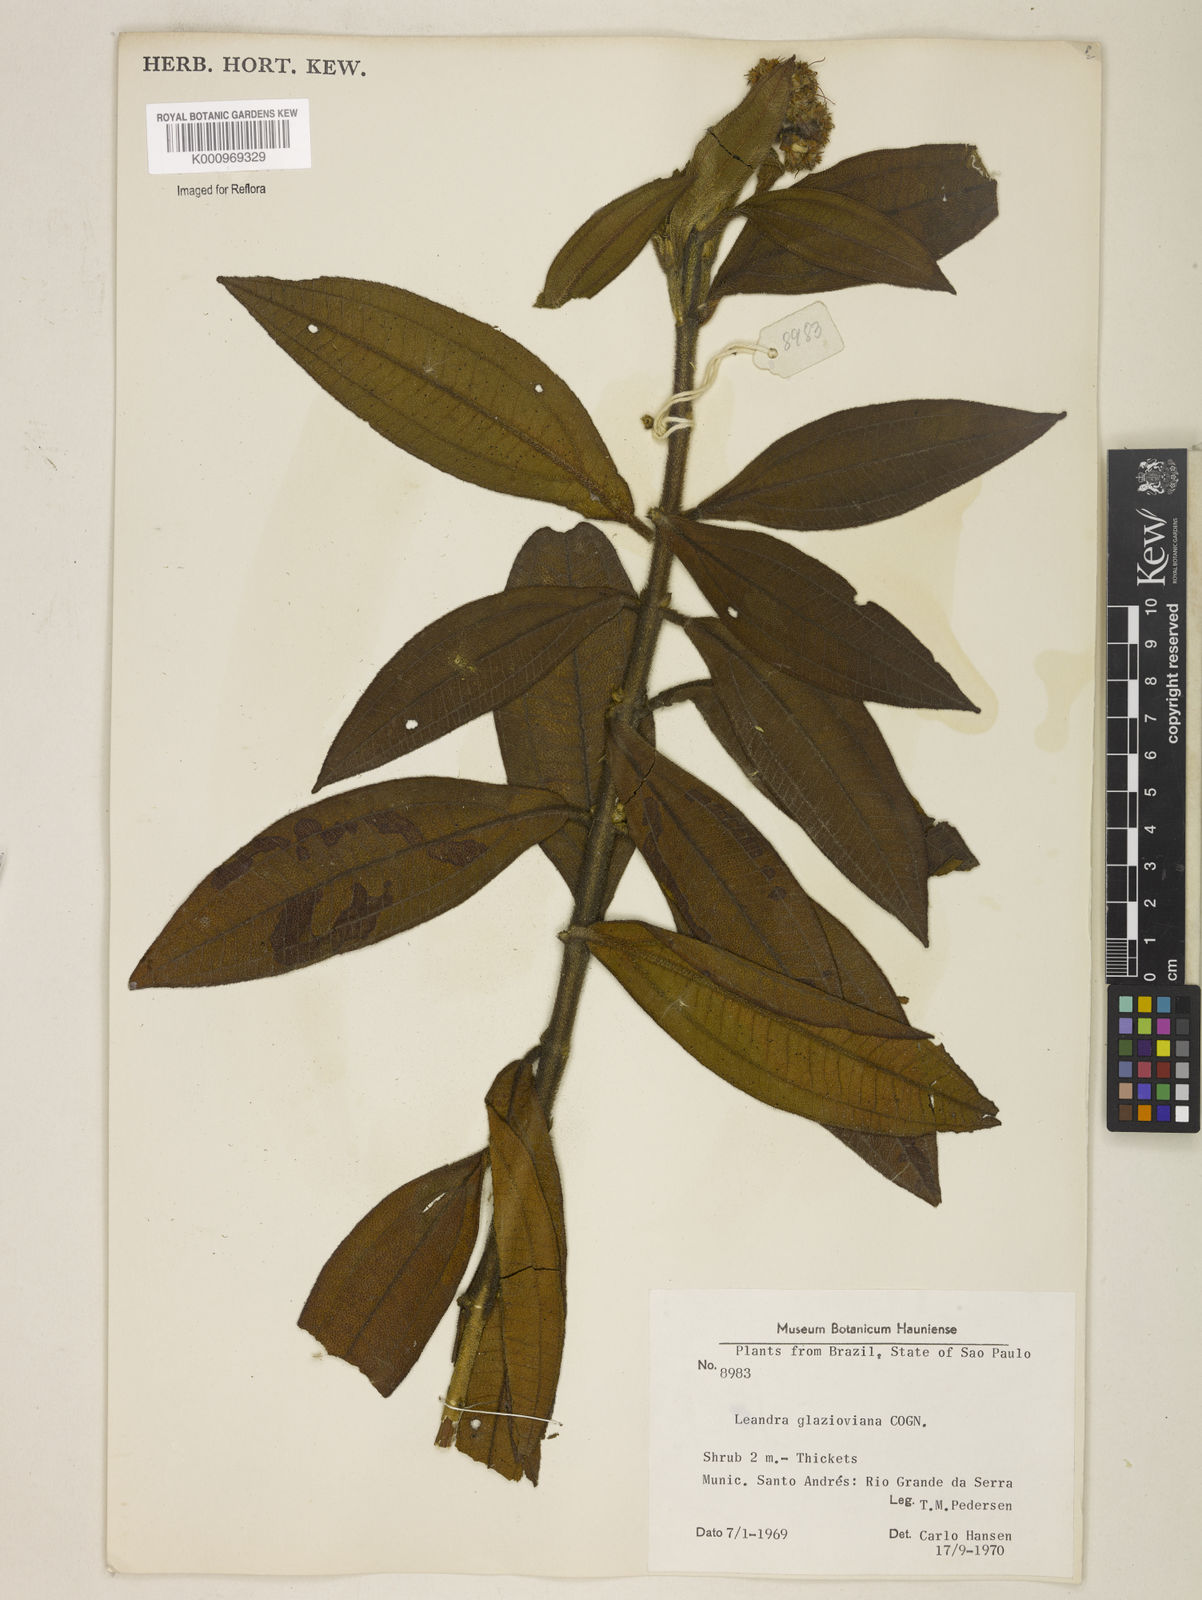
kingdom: Plantae
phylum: Tracheophyta
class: Magnoliopsida
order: Myrtales
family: Melastomataceae
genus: Miconia
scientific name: Miconia pubistyla
